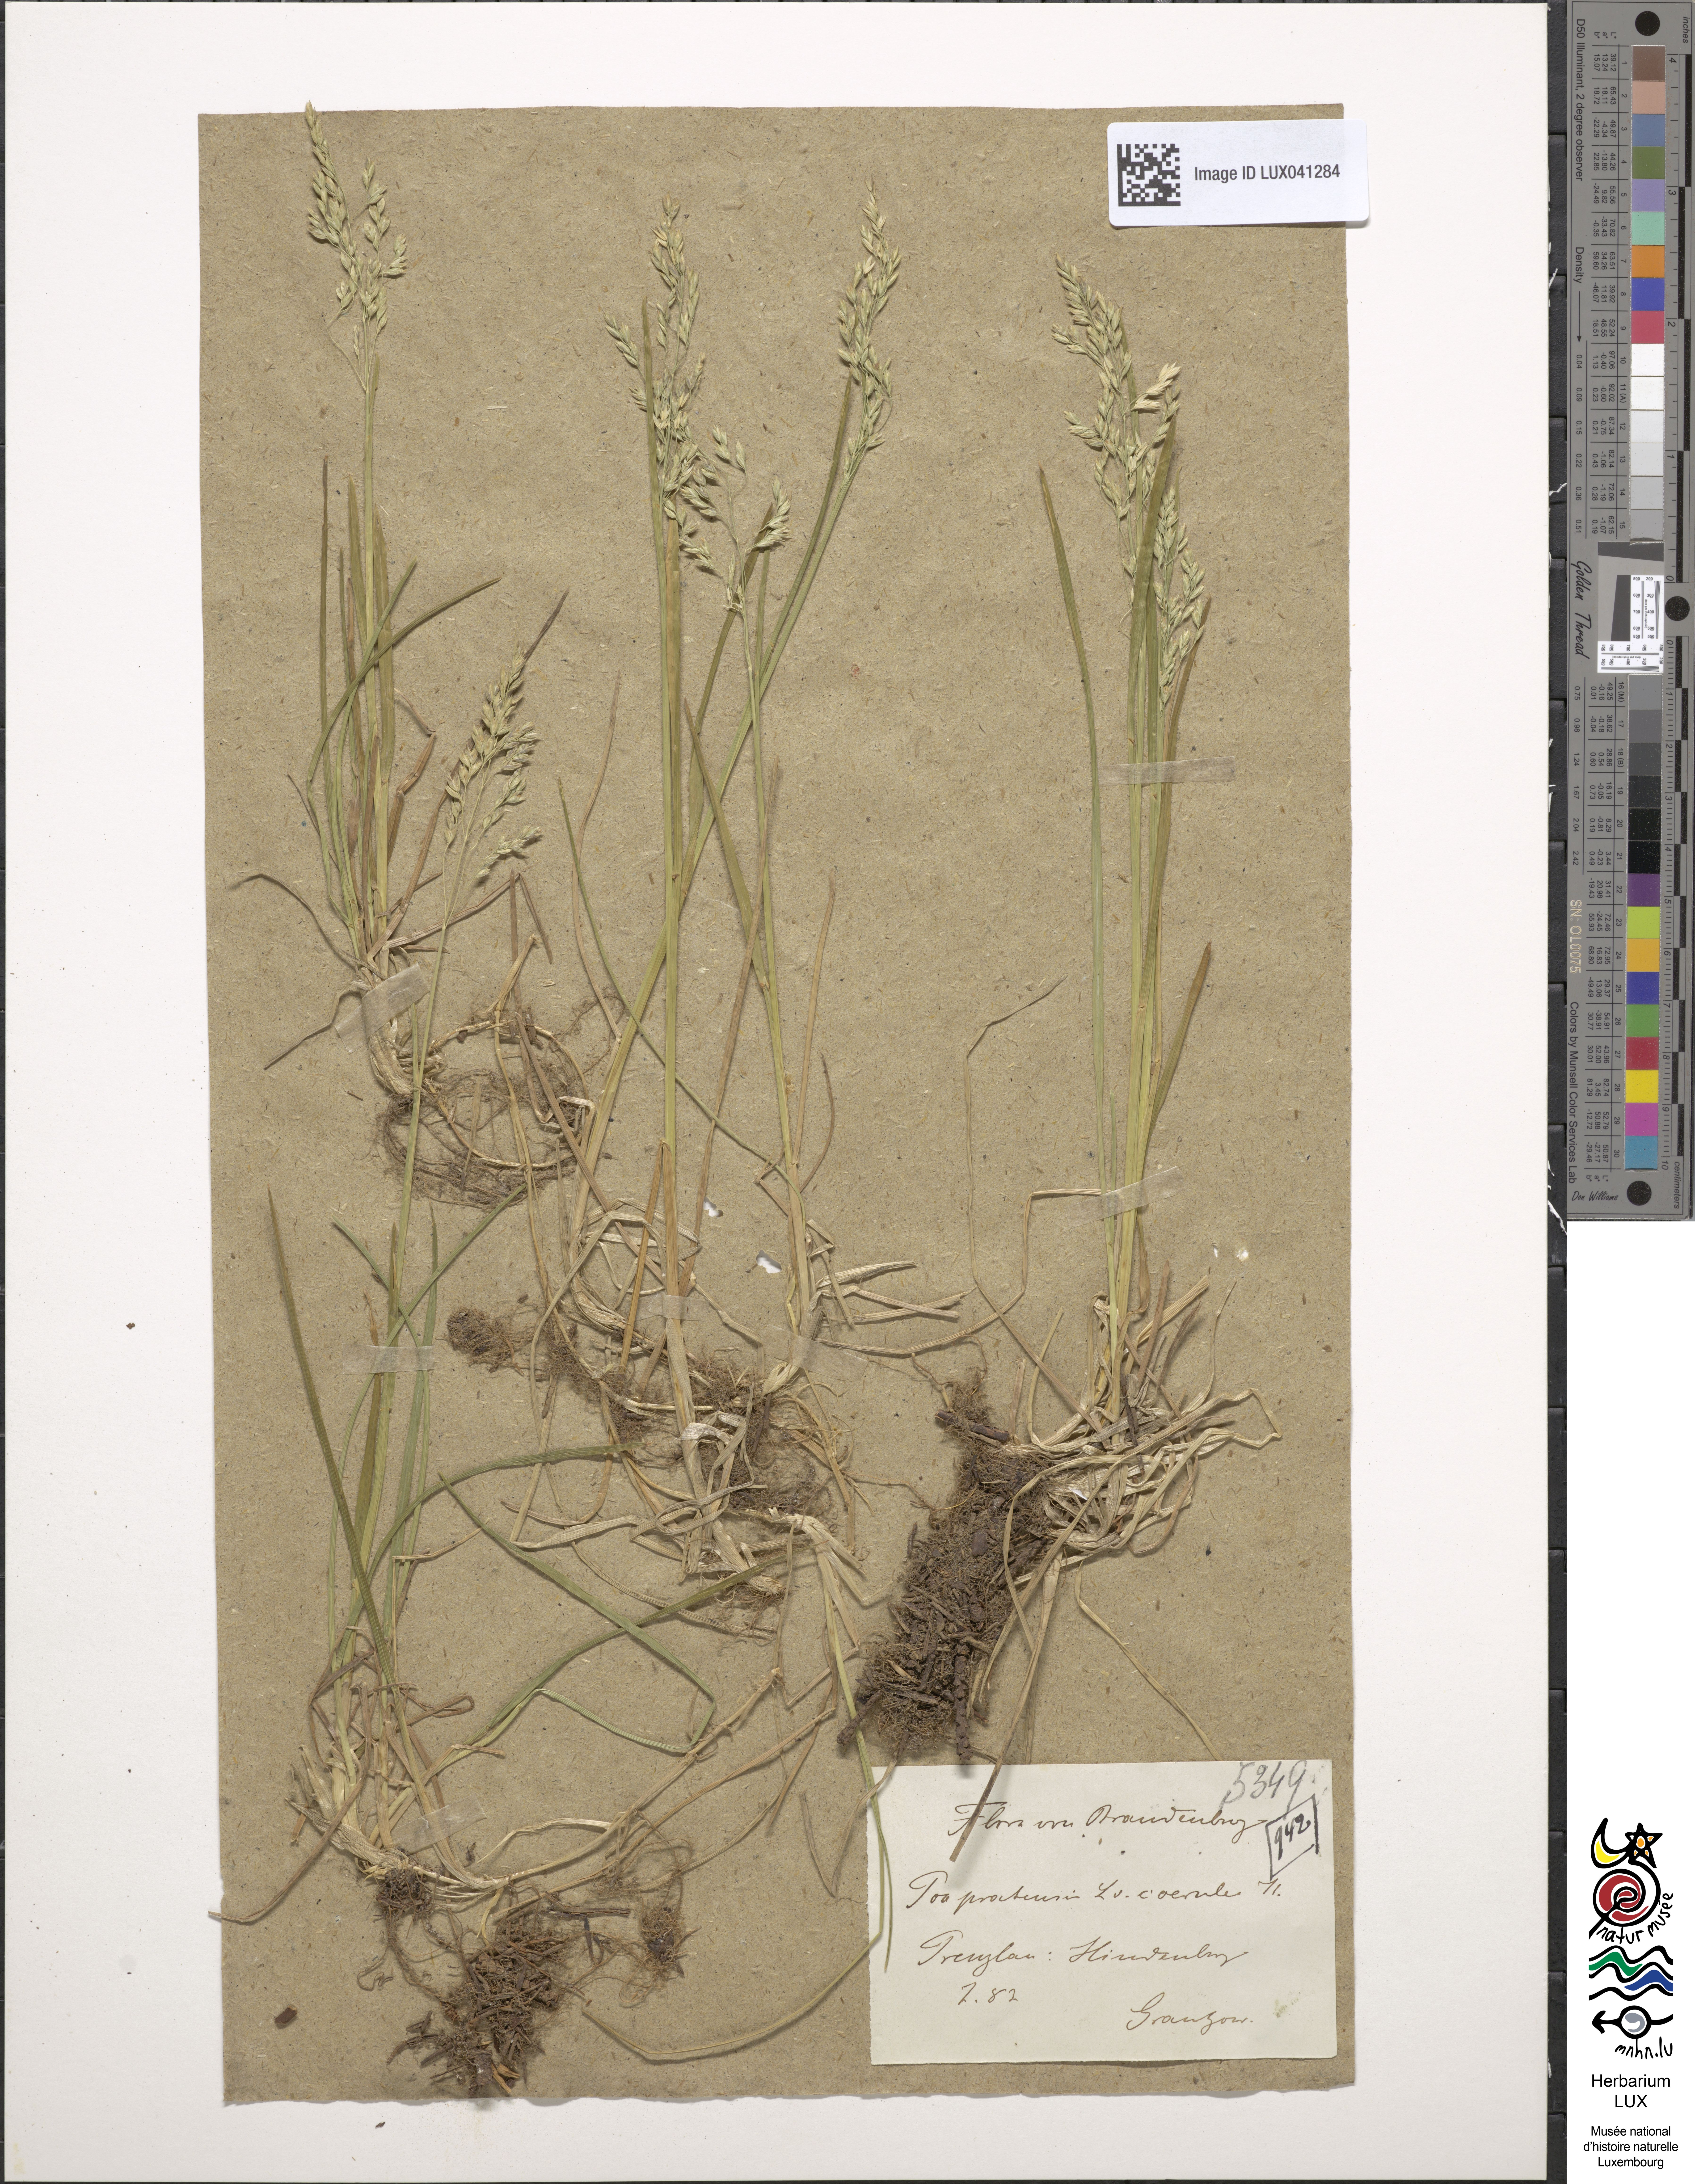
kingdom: Plantae
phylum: Tracheophyta
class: Liliopsida
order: Poales
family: Poaceae
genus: Poa
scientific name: Poa pratensis
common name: Kentucky bluegrass
